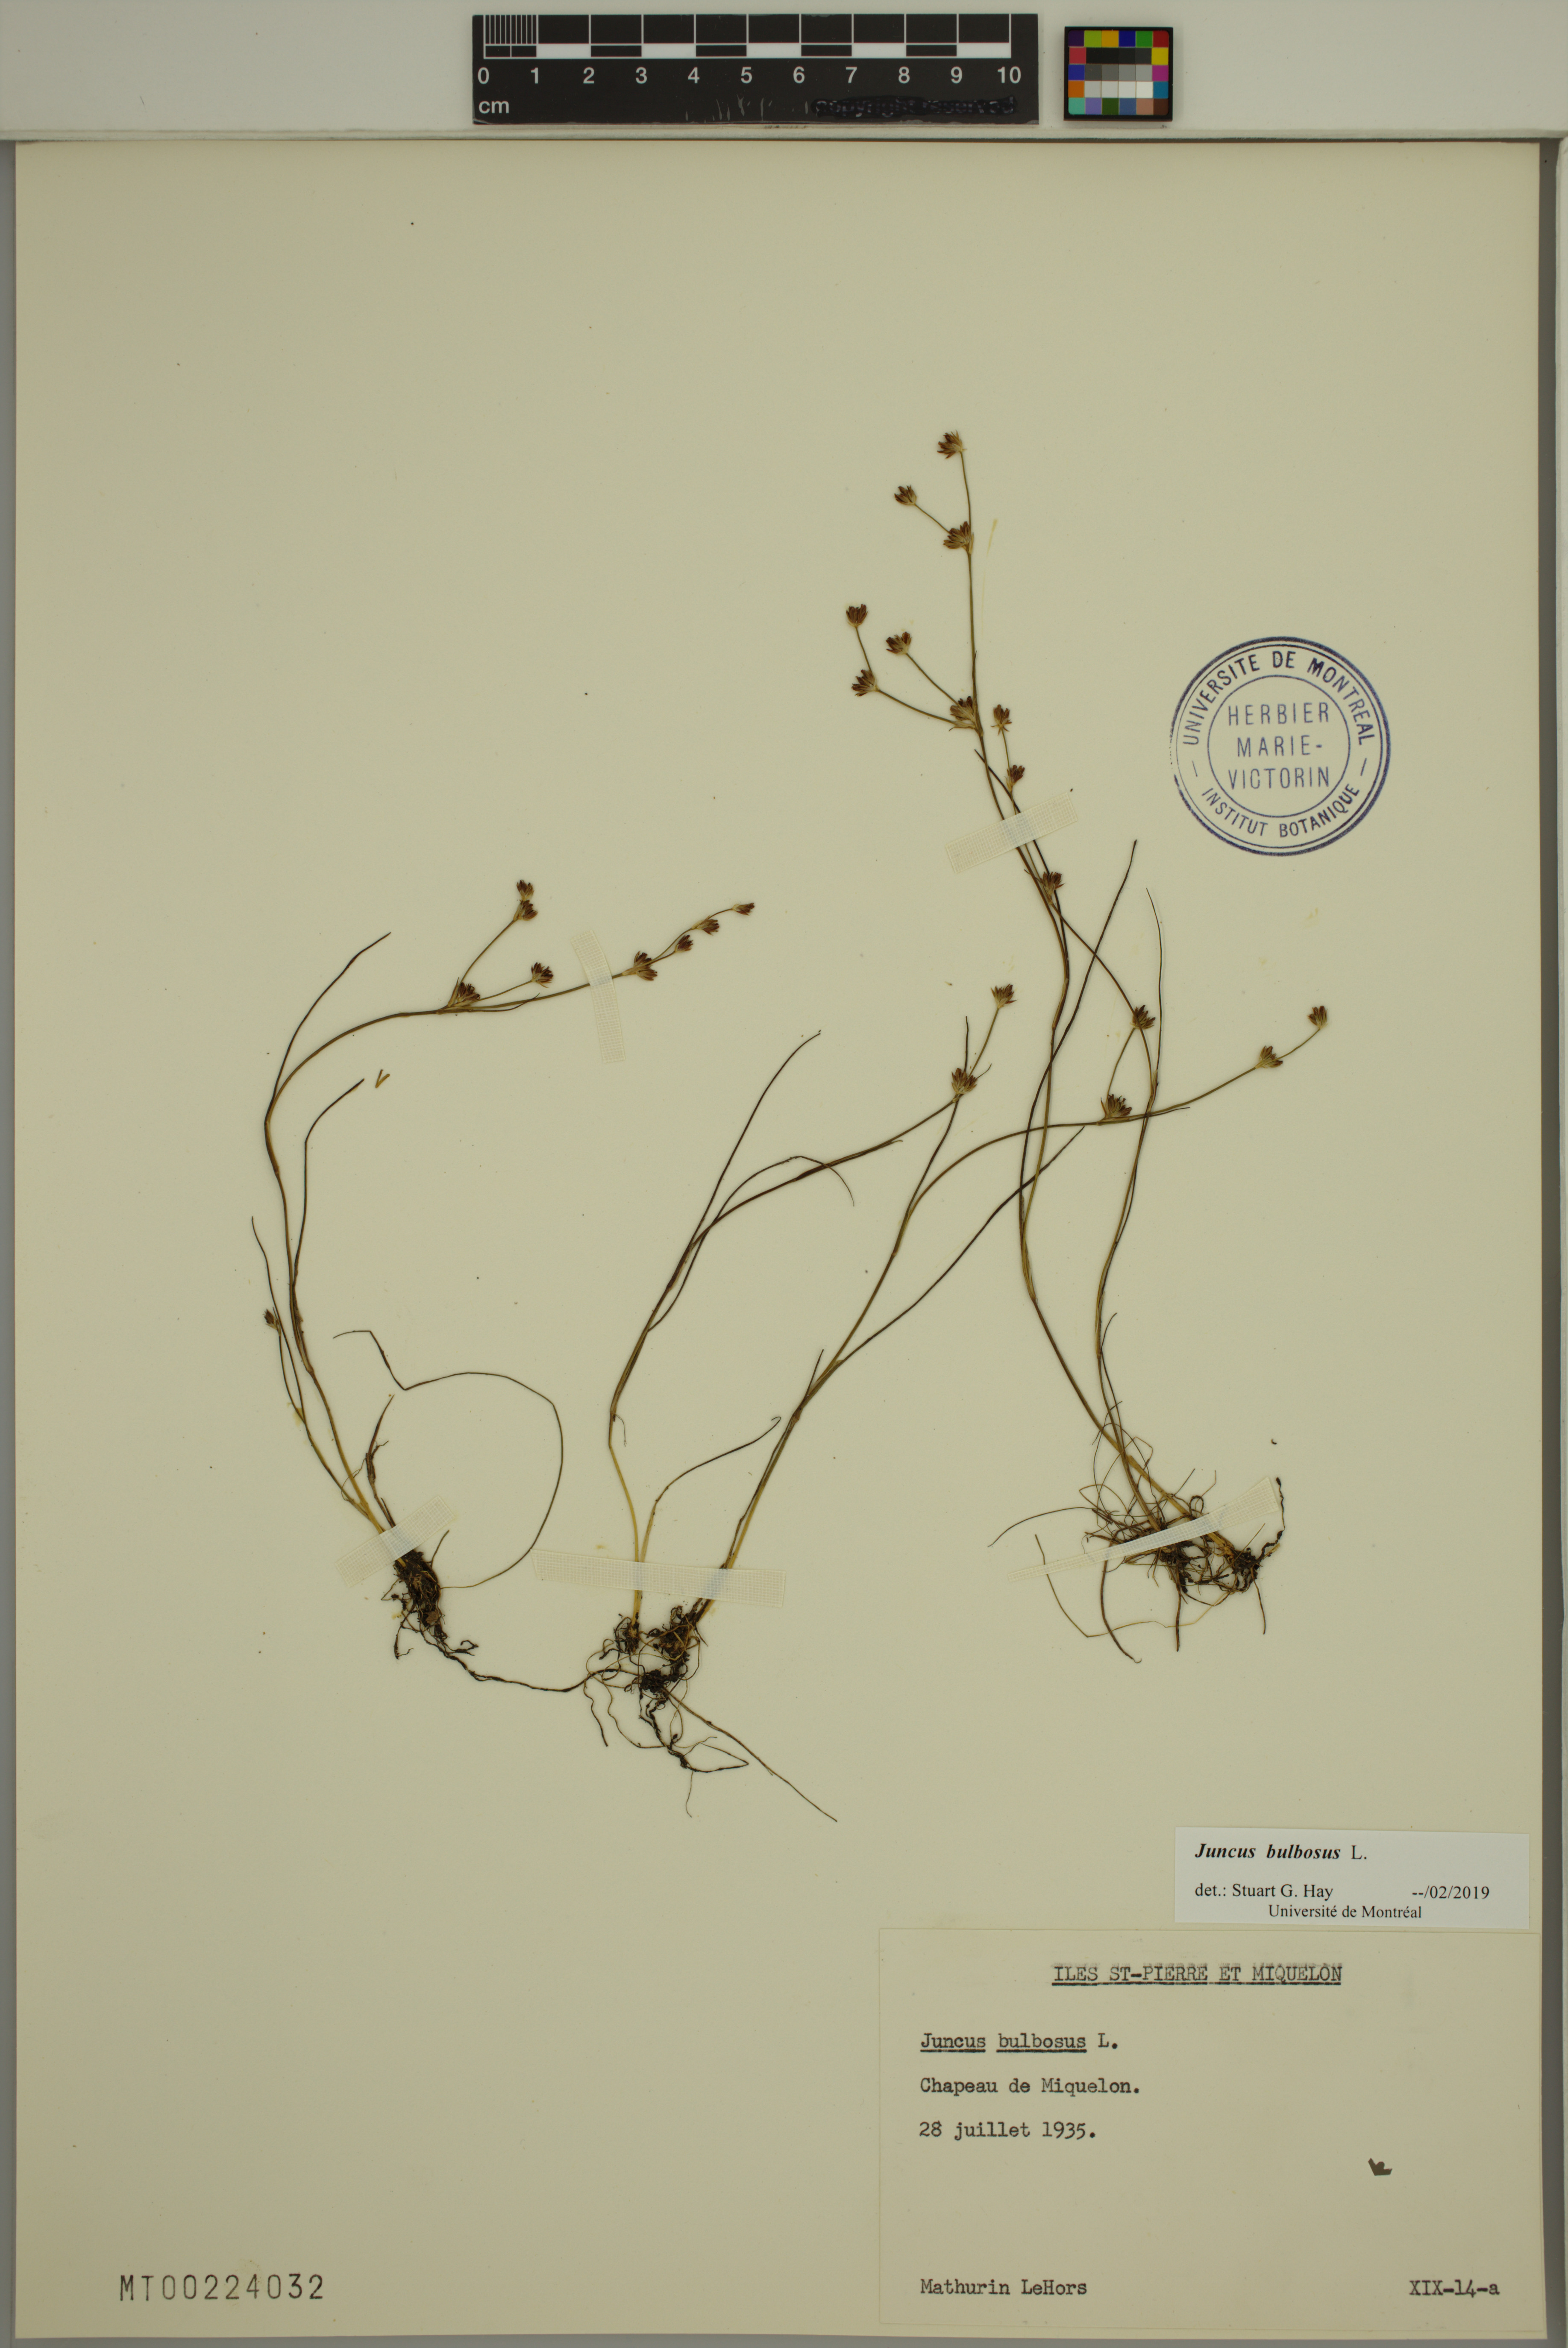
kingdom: Plantae
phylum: Tracheophyta
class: Liliopsida
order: Poales
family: Juncaceae
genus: Juncus
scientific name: Juncus bulbosus
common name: Bulbous rush
